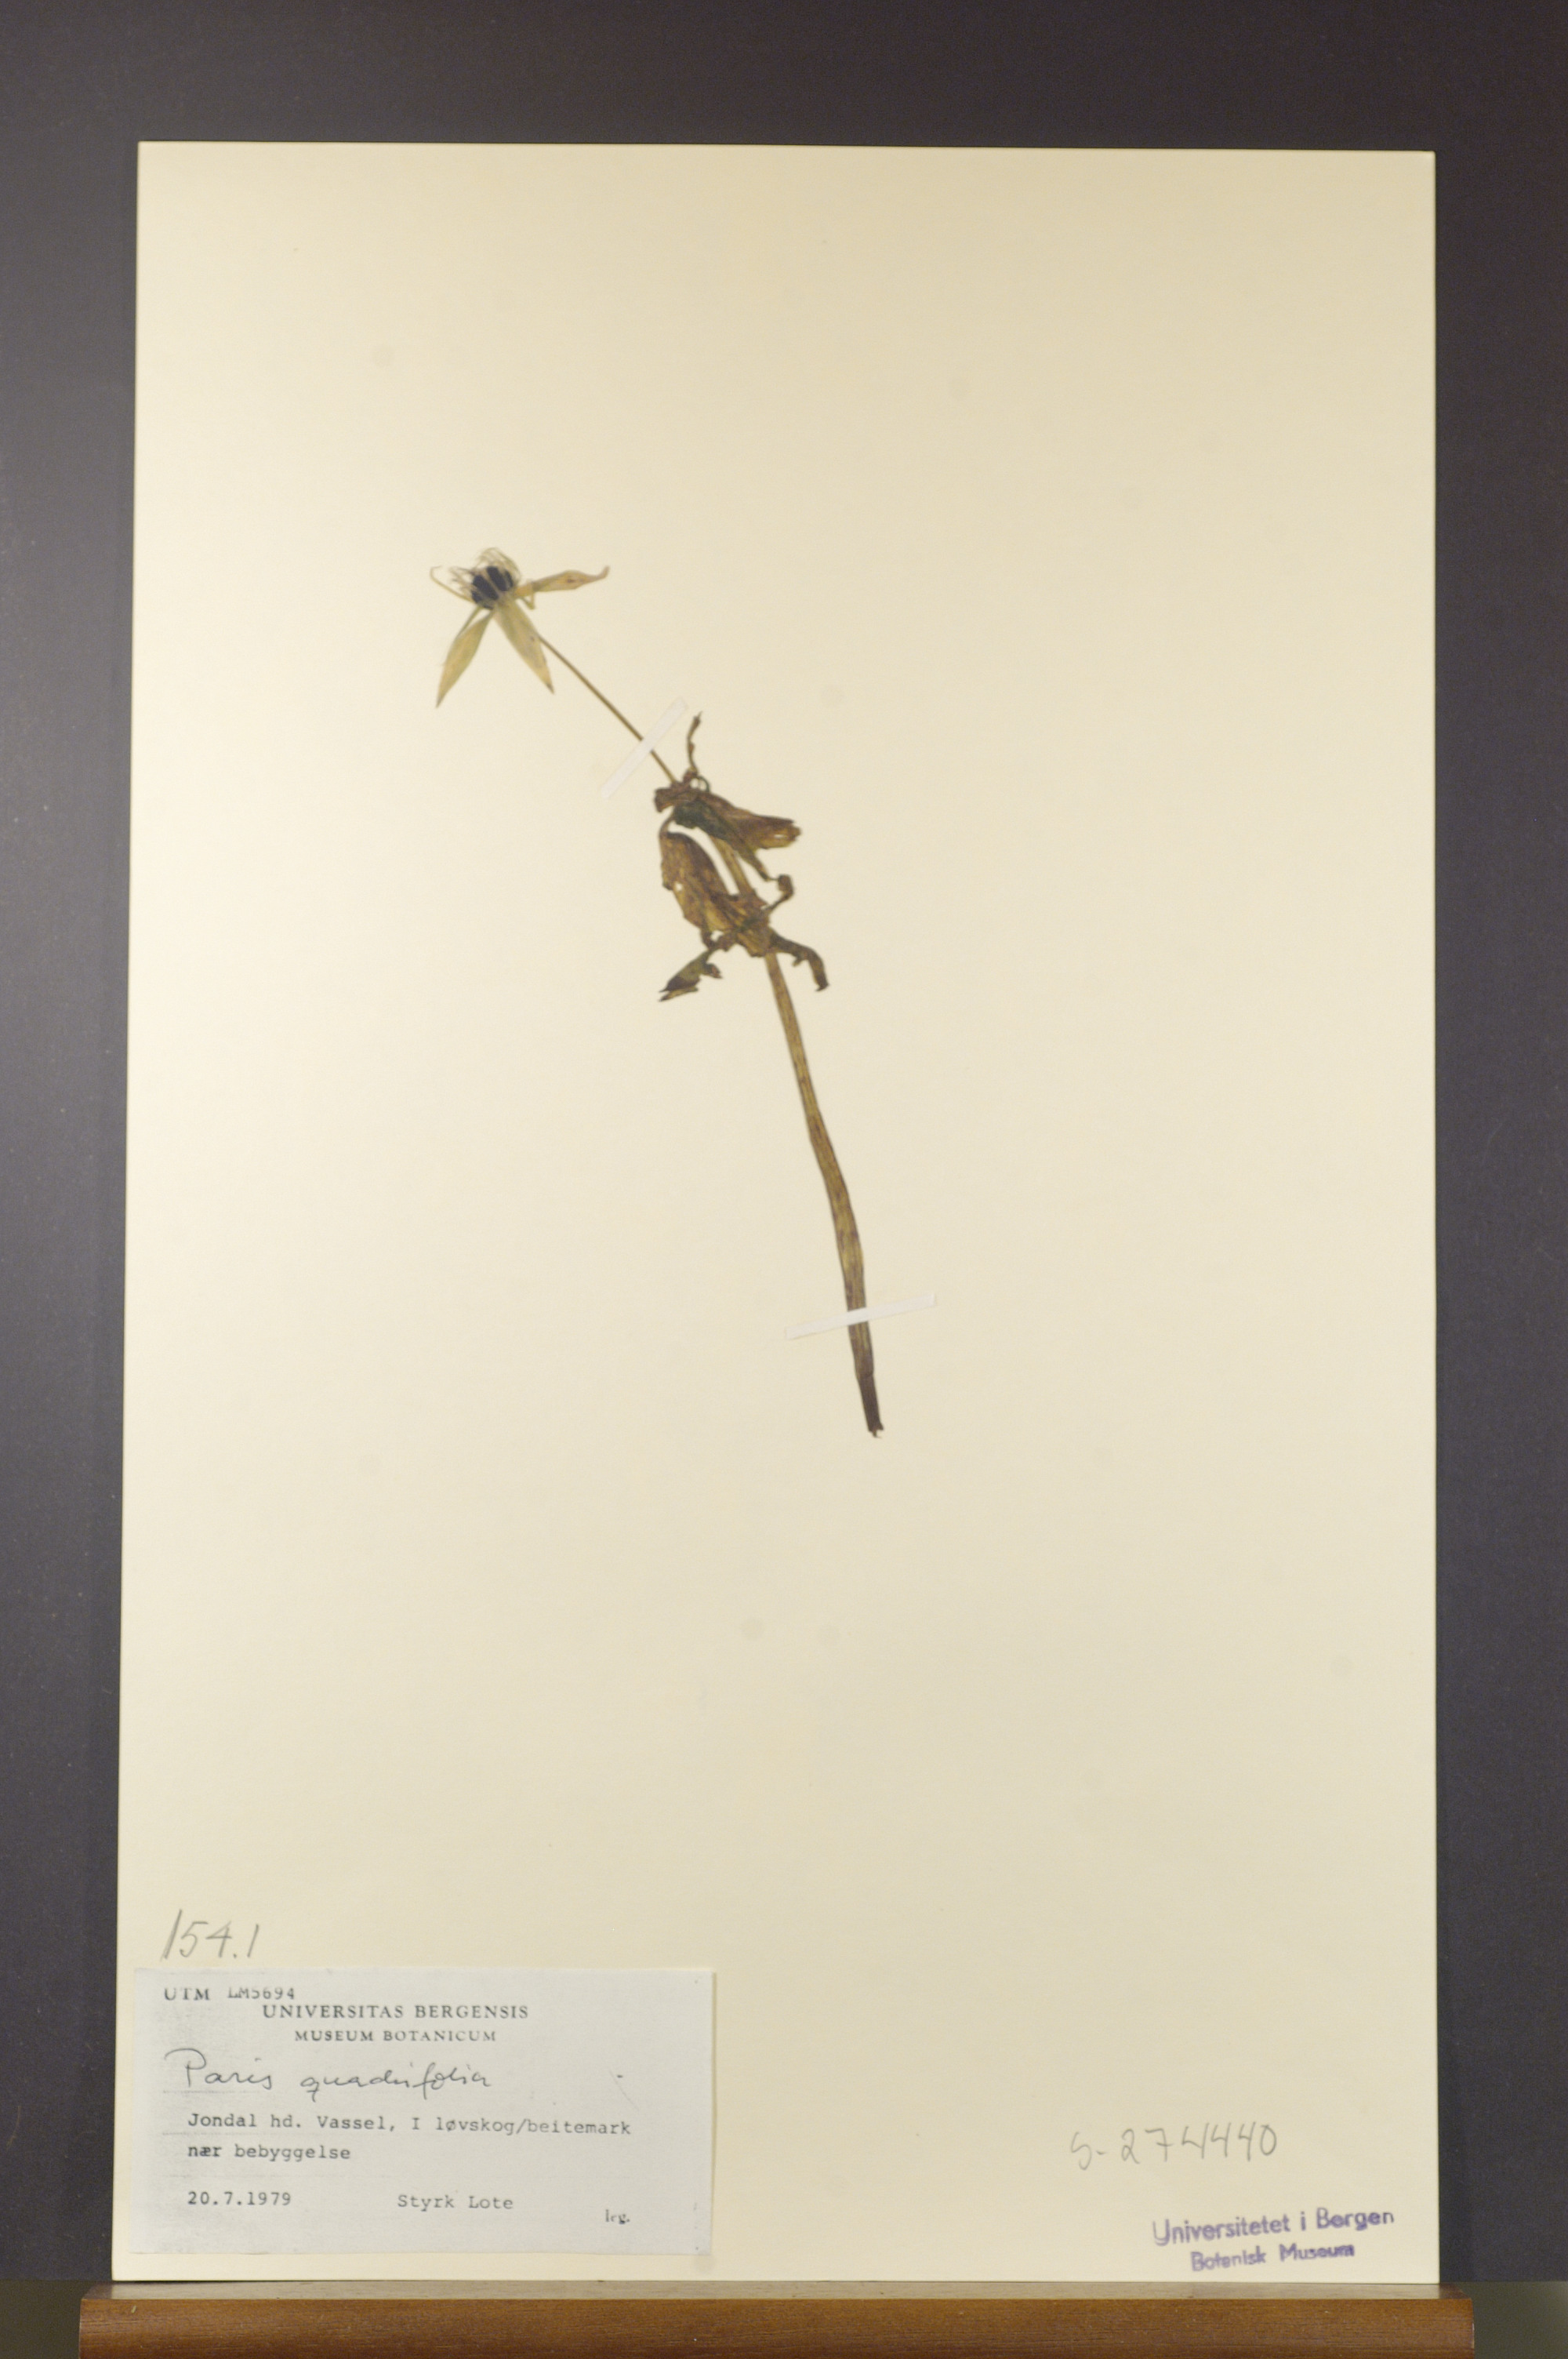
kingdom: Plantae
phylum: Tracheophyta
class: Liliopsida
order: Liliales
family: Melanthiaceae
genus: Paris
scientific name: Paris quadrifolia
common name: Herb-paris
